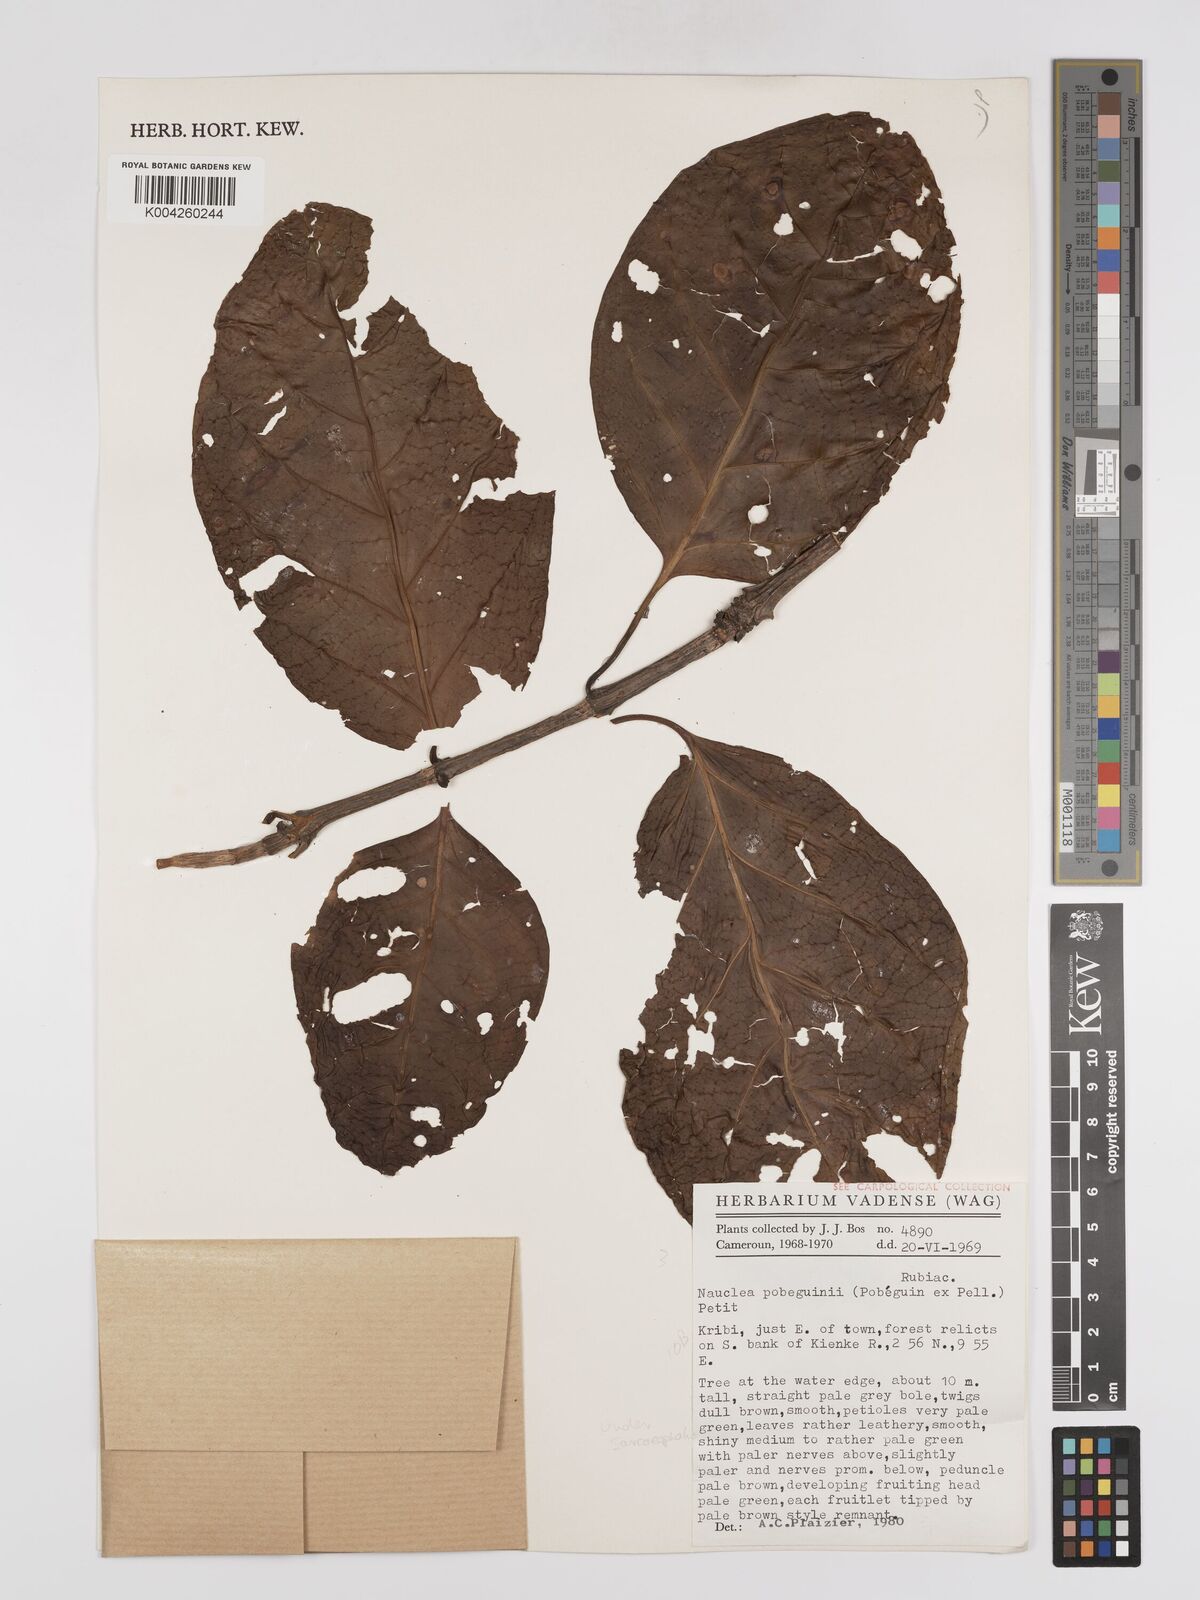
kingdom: Plantae
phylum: Tracheophyta
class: Magnoliopsida
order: Gentianales
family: Rubiaceae
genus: Nauclea
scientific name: Nauclea pobeguinii
